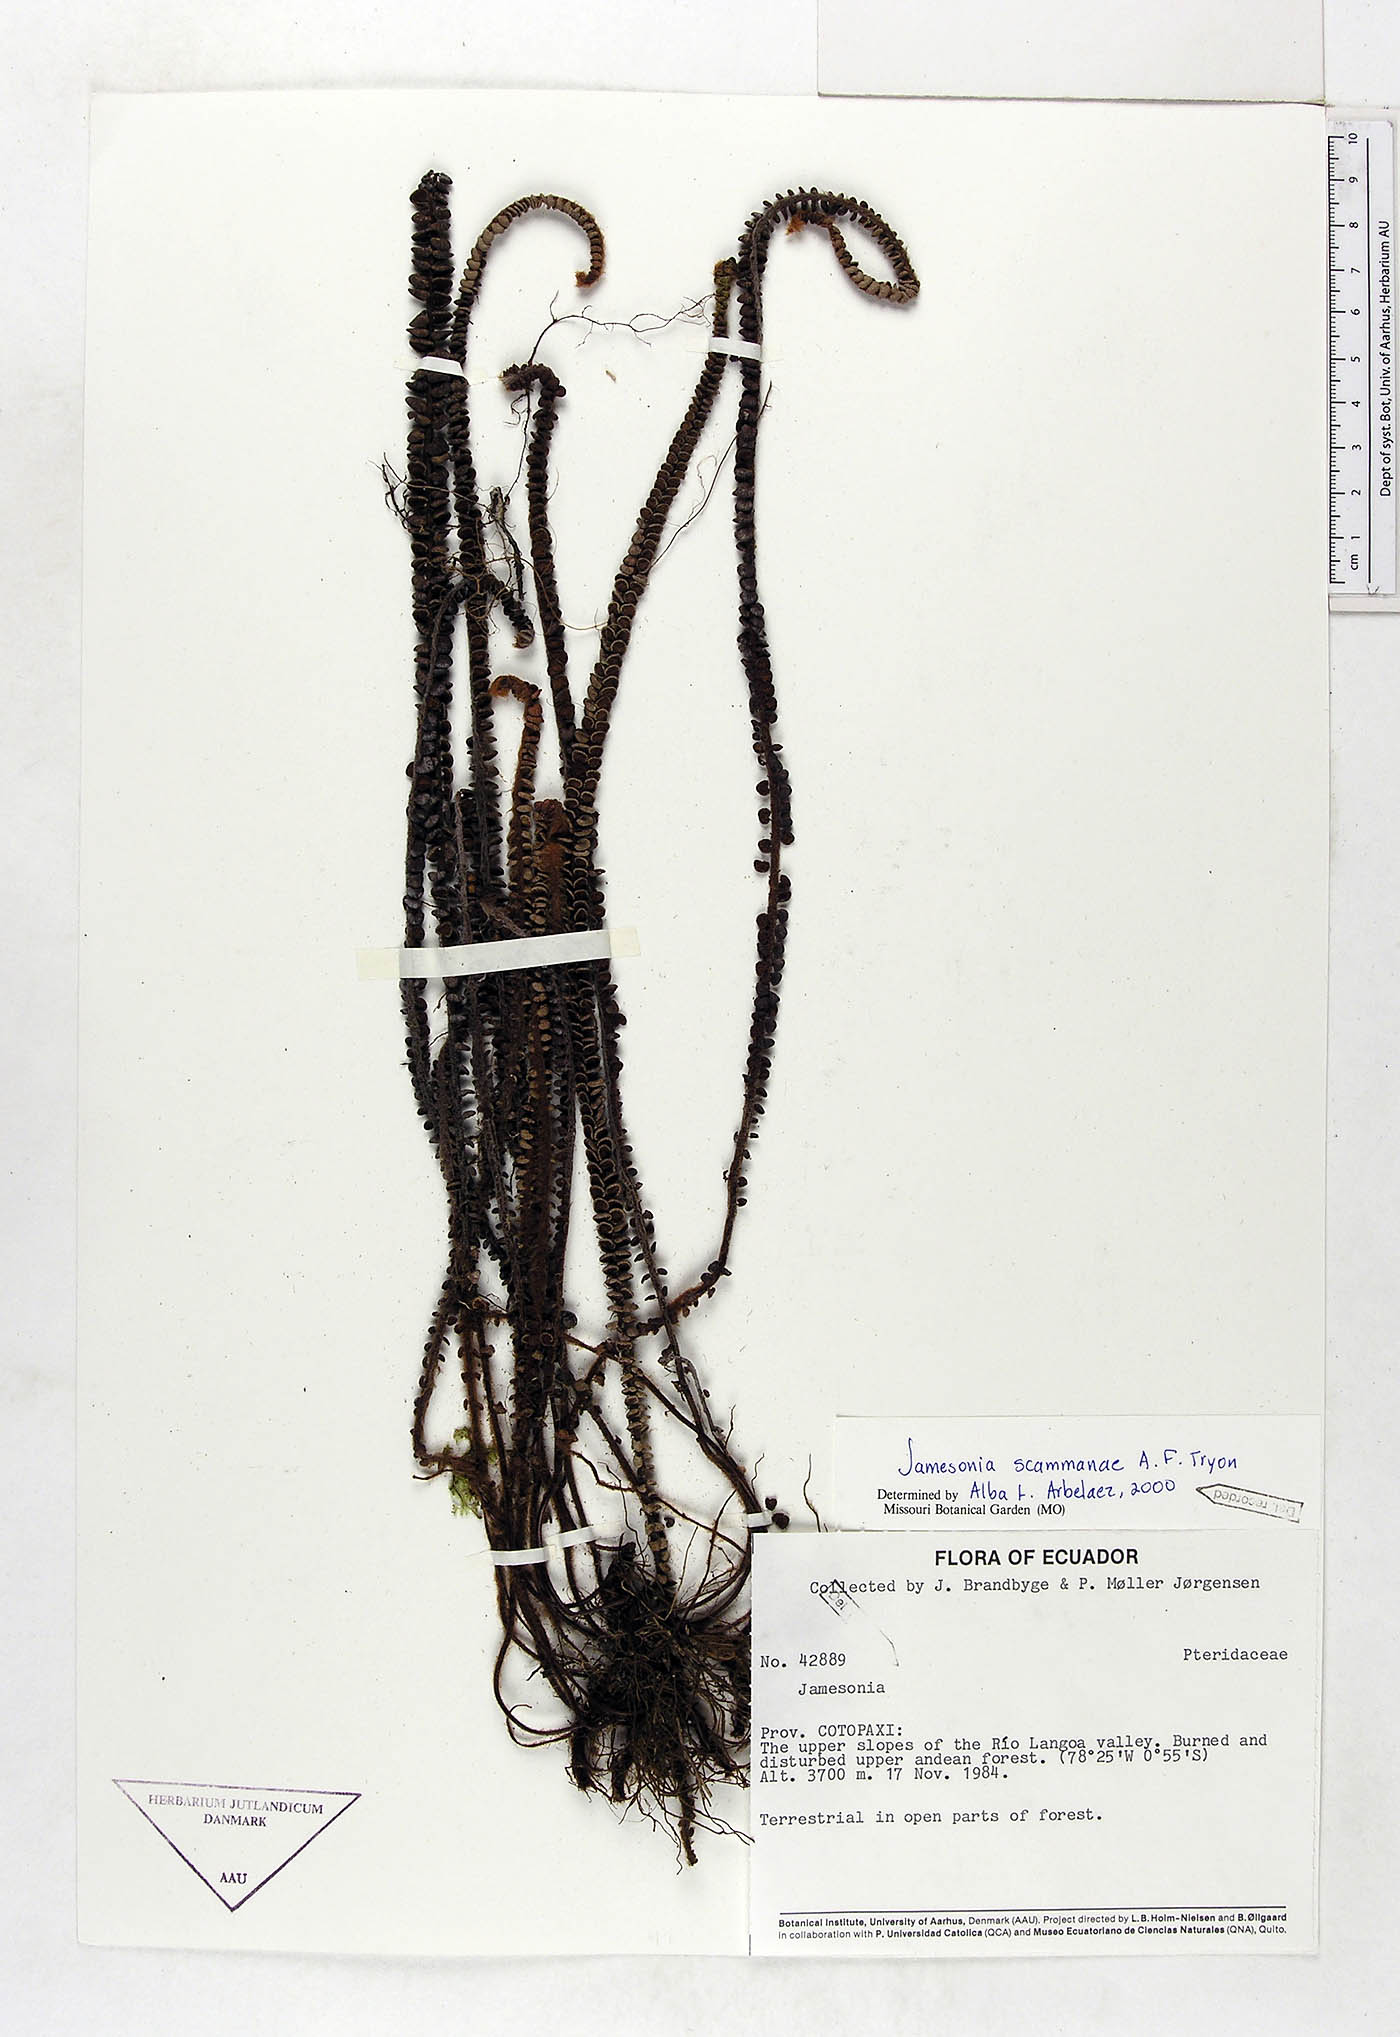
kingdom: Plantae
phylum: Tracheophyta
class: Polypodiopsida
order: Polypodiales
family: Pteridaceae
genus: Jamesonia
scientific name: Jamesonia scammanae
